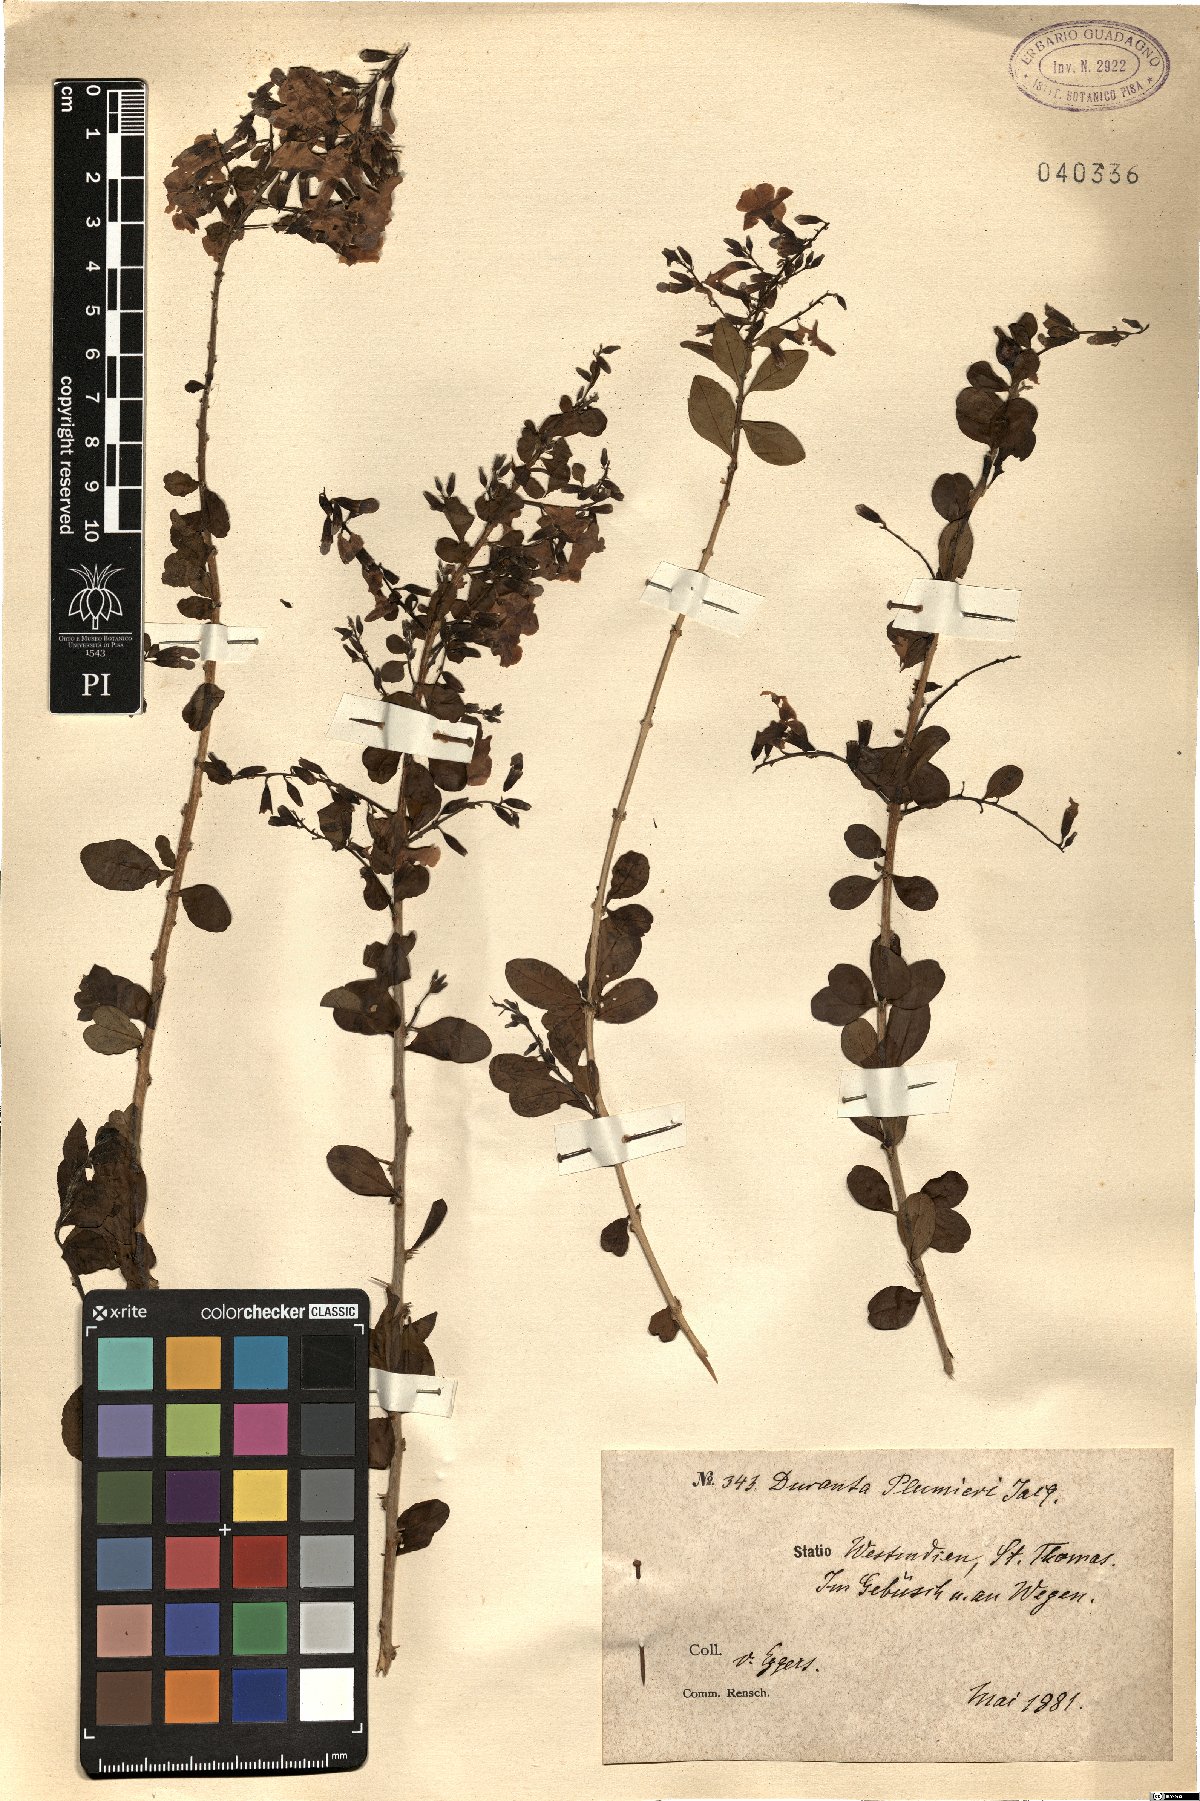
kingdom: Plantae
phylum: Tracheophyta
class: Magnoliopsida
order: Lamiales
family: Verbenaceae
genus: Duranta
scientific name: Duranta erecta
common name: Golden dewdrops
